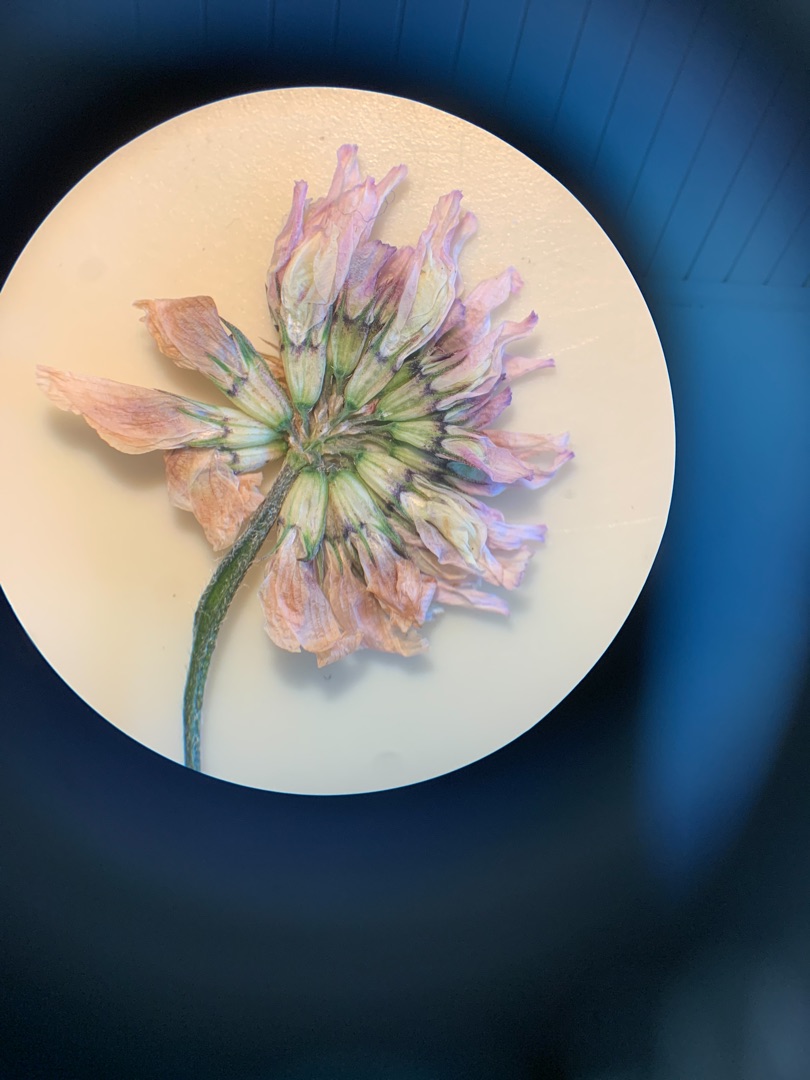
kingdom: Plantae
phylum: Tracheophyta
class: Magnoliopsida
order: Fabales
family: Fabaceae
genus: Trifolium
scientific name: Trifolium repens
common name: Hvid-kløver
